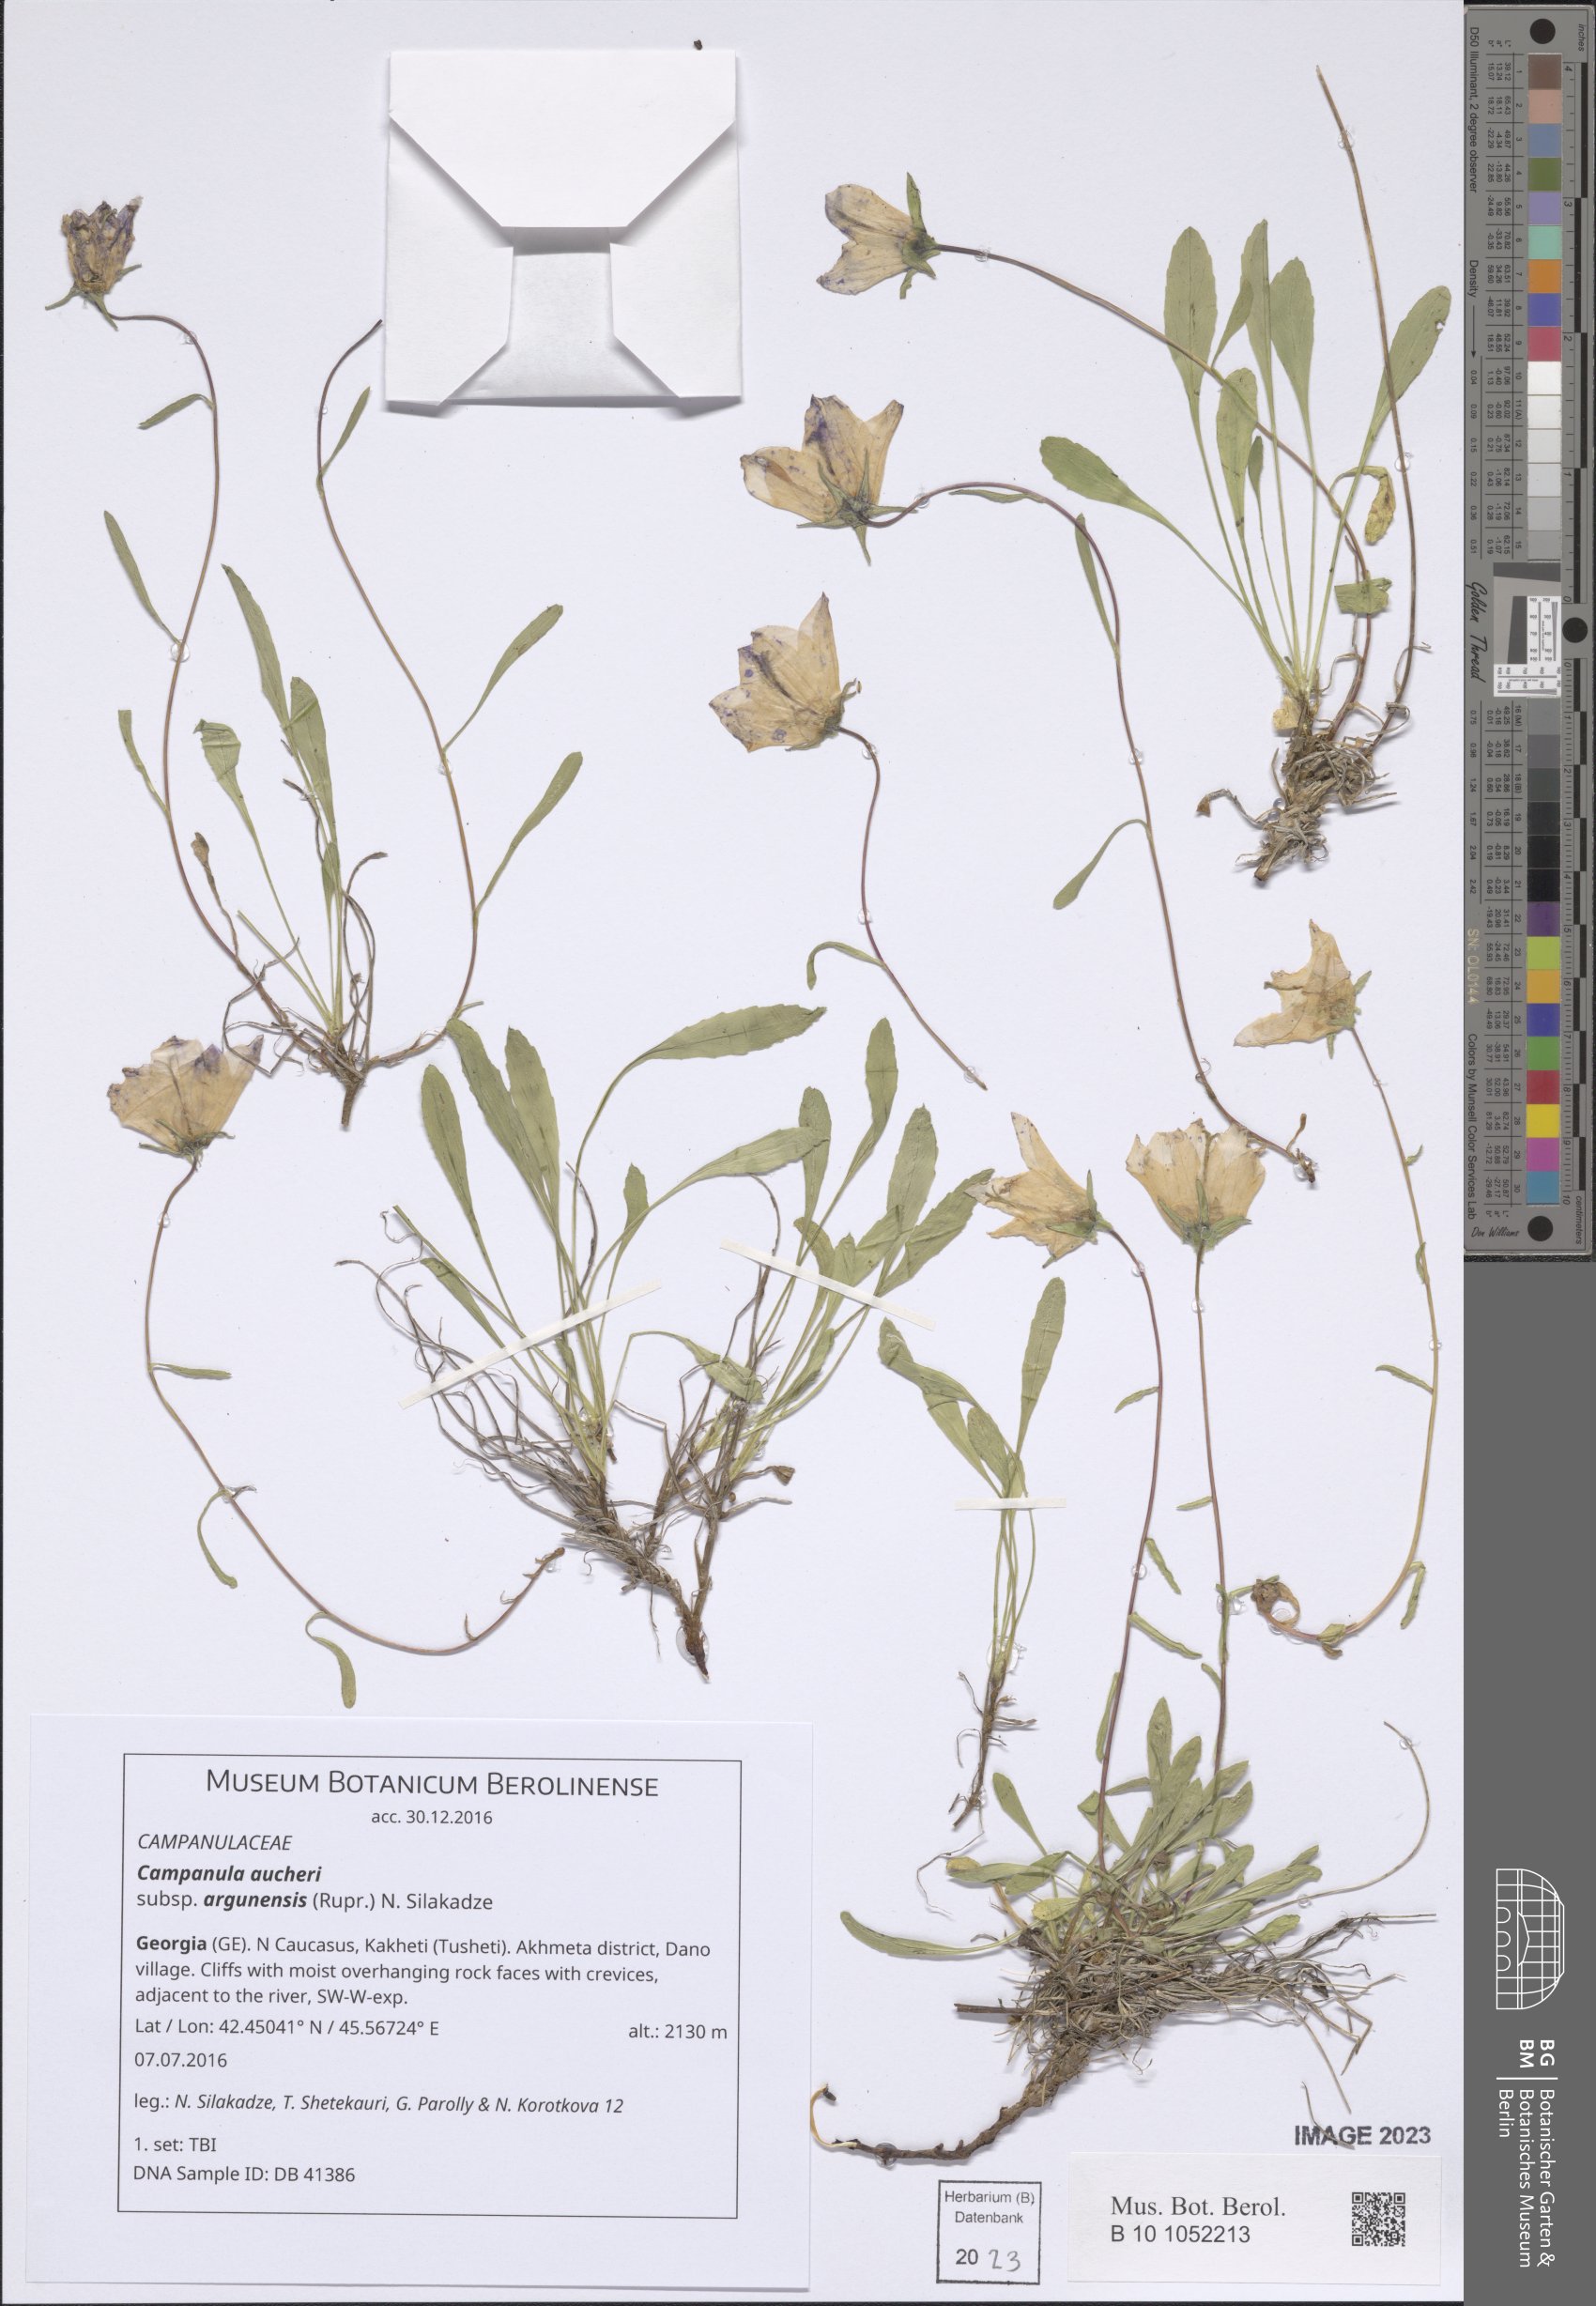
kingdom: Plantae
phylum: Tracheophyta
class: Magnoliopsida
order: Asterales
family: Campanulaceae
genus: Campanula
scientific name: Campanula saxifraga
